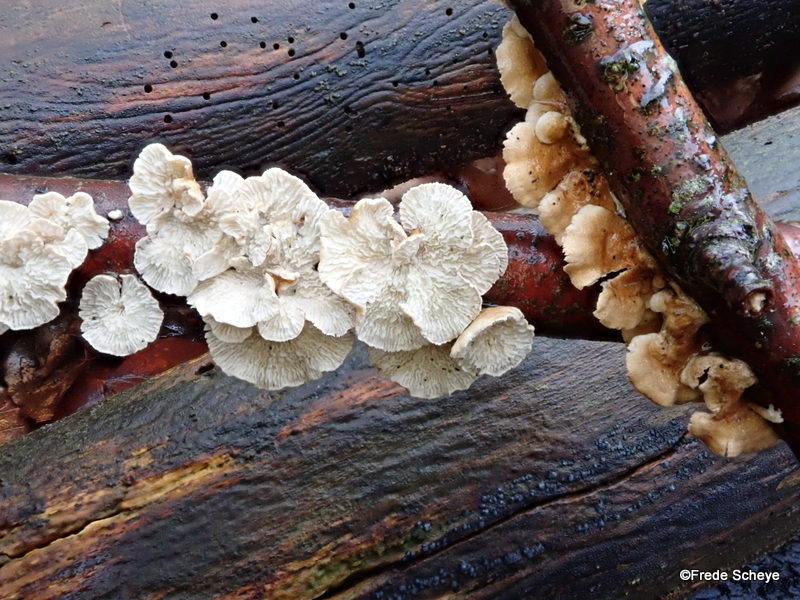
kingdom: Fungi
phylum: Basidiomycota
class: Agaricomycetes
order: Amylocorticiales
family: Amylocorticiaceae
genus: Plicaturopsis
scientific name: Plicaturopsis crispa
